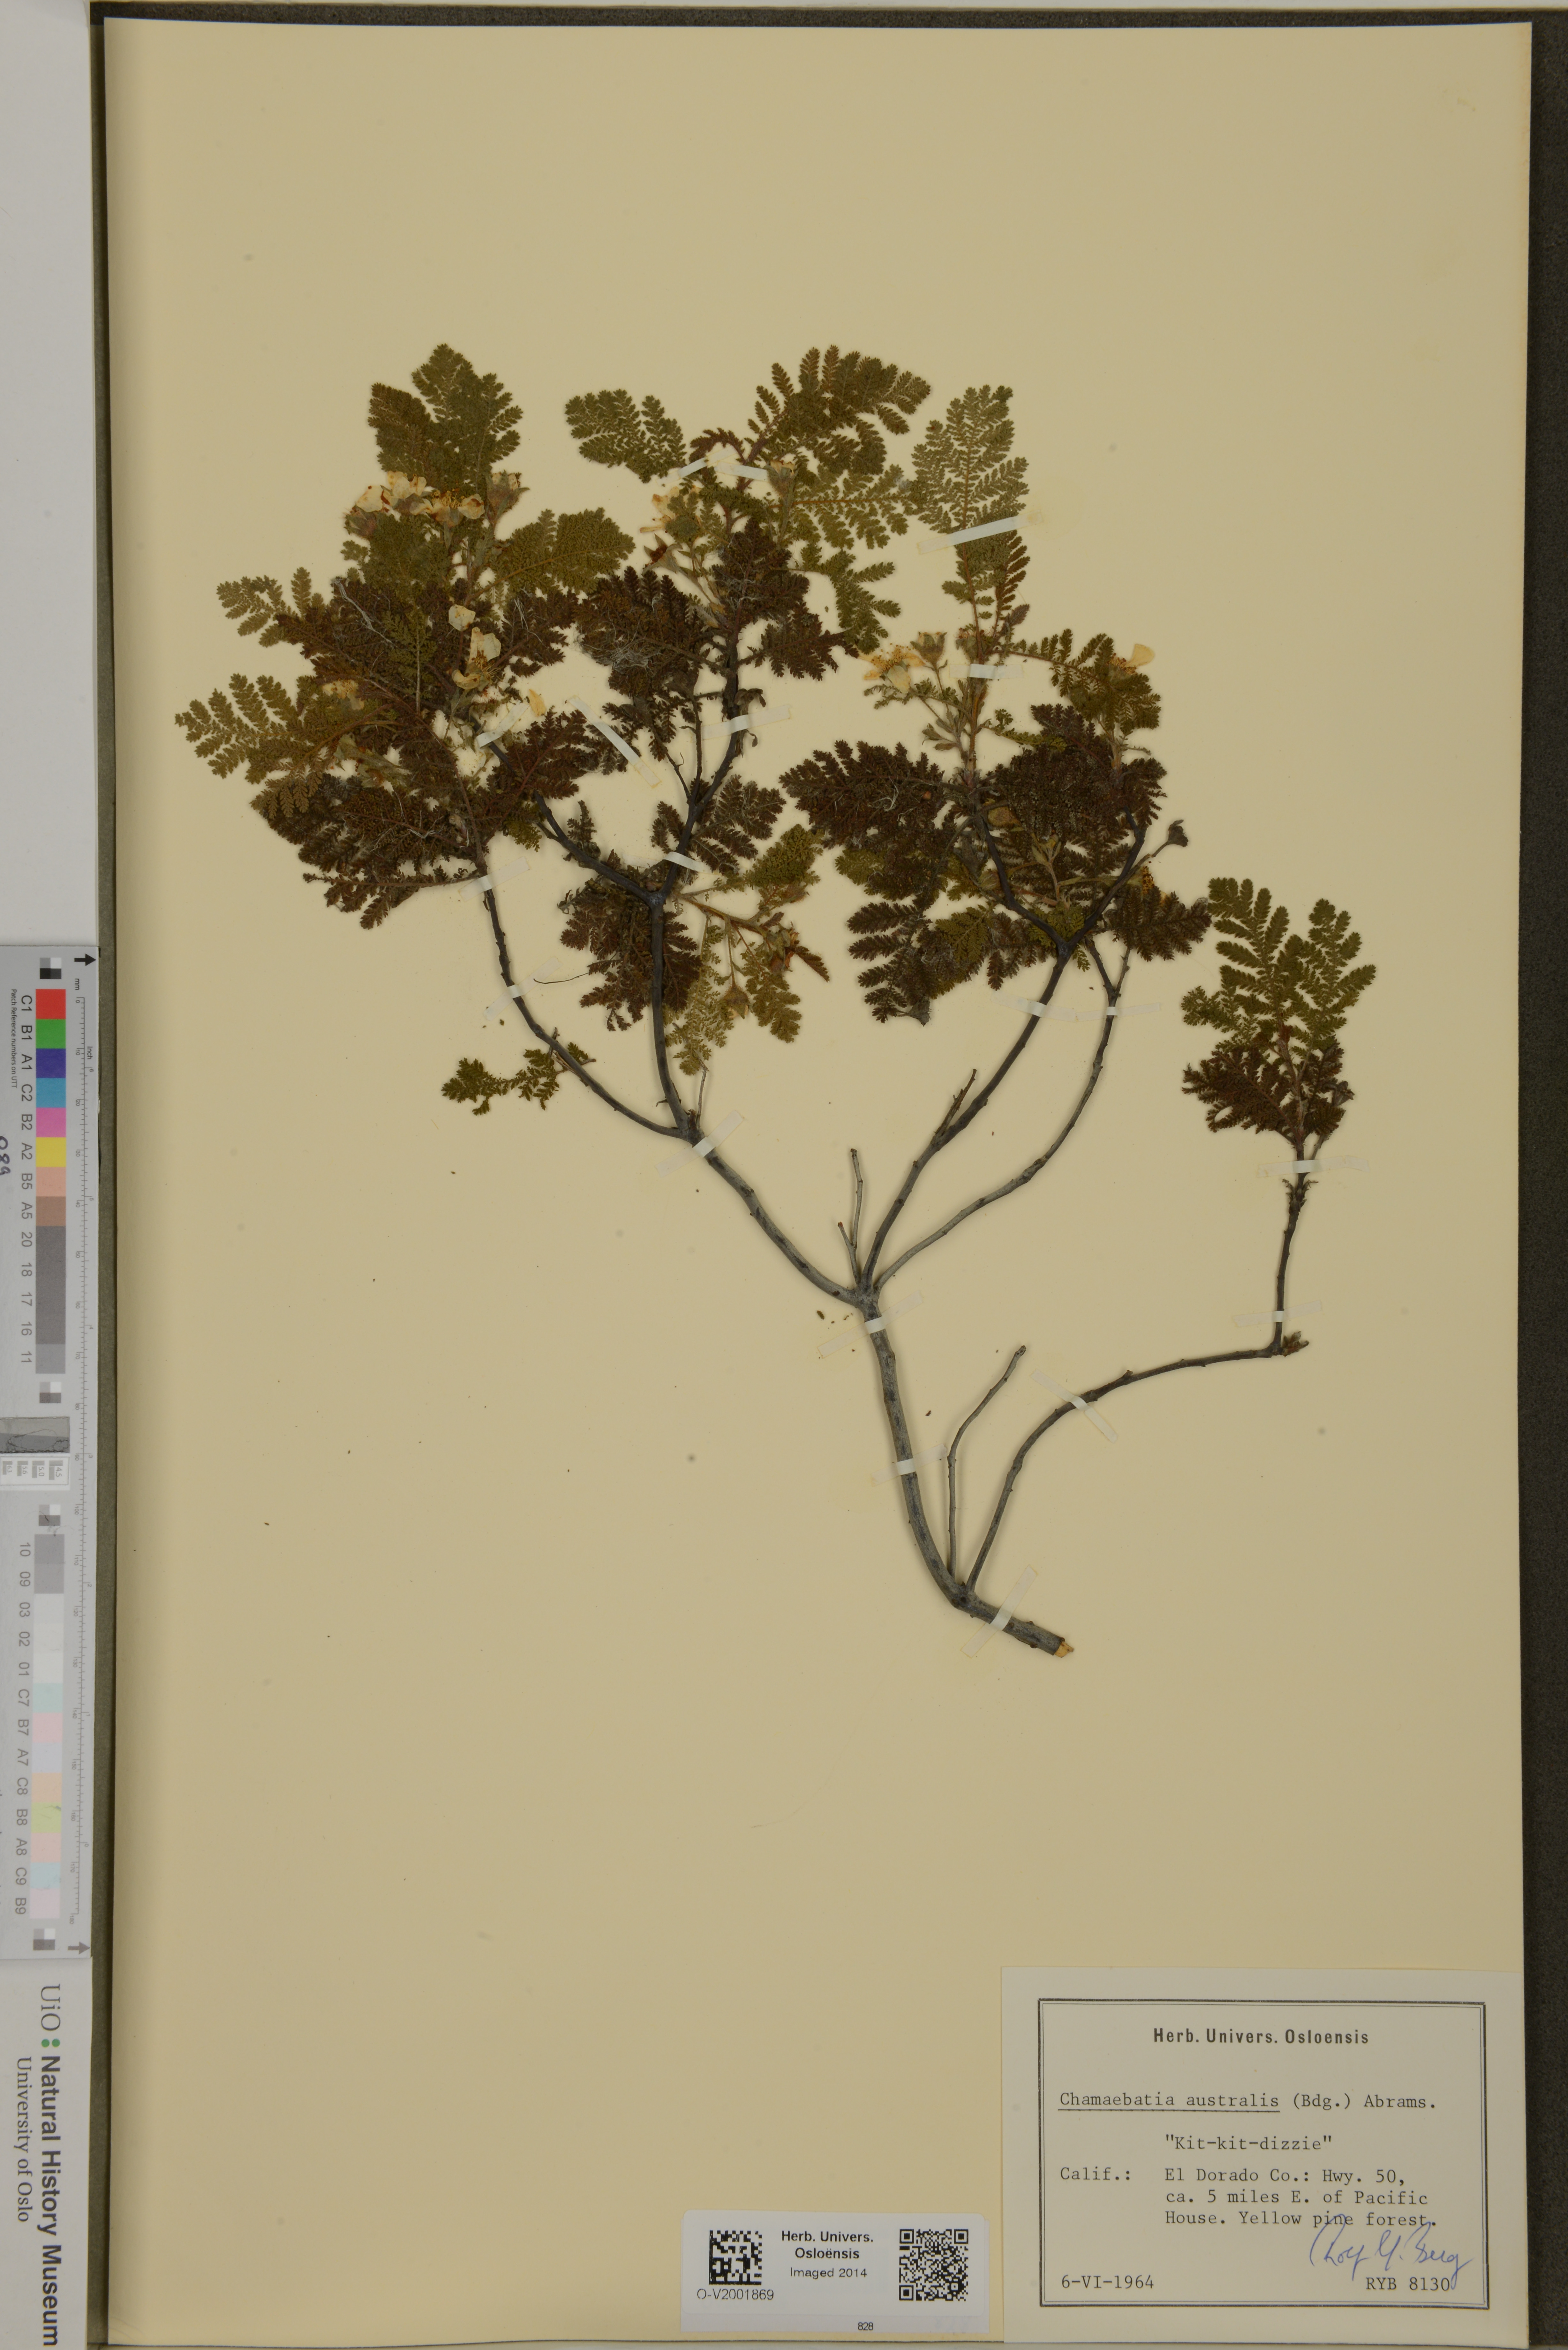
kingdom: Plantae
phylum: Tracheophyta
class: Magnoliopsida
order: Rosales
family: Rosaceae
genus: Chamaebatia
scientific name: Chamaebatia australis
